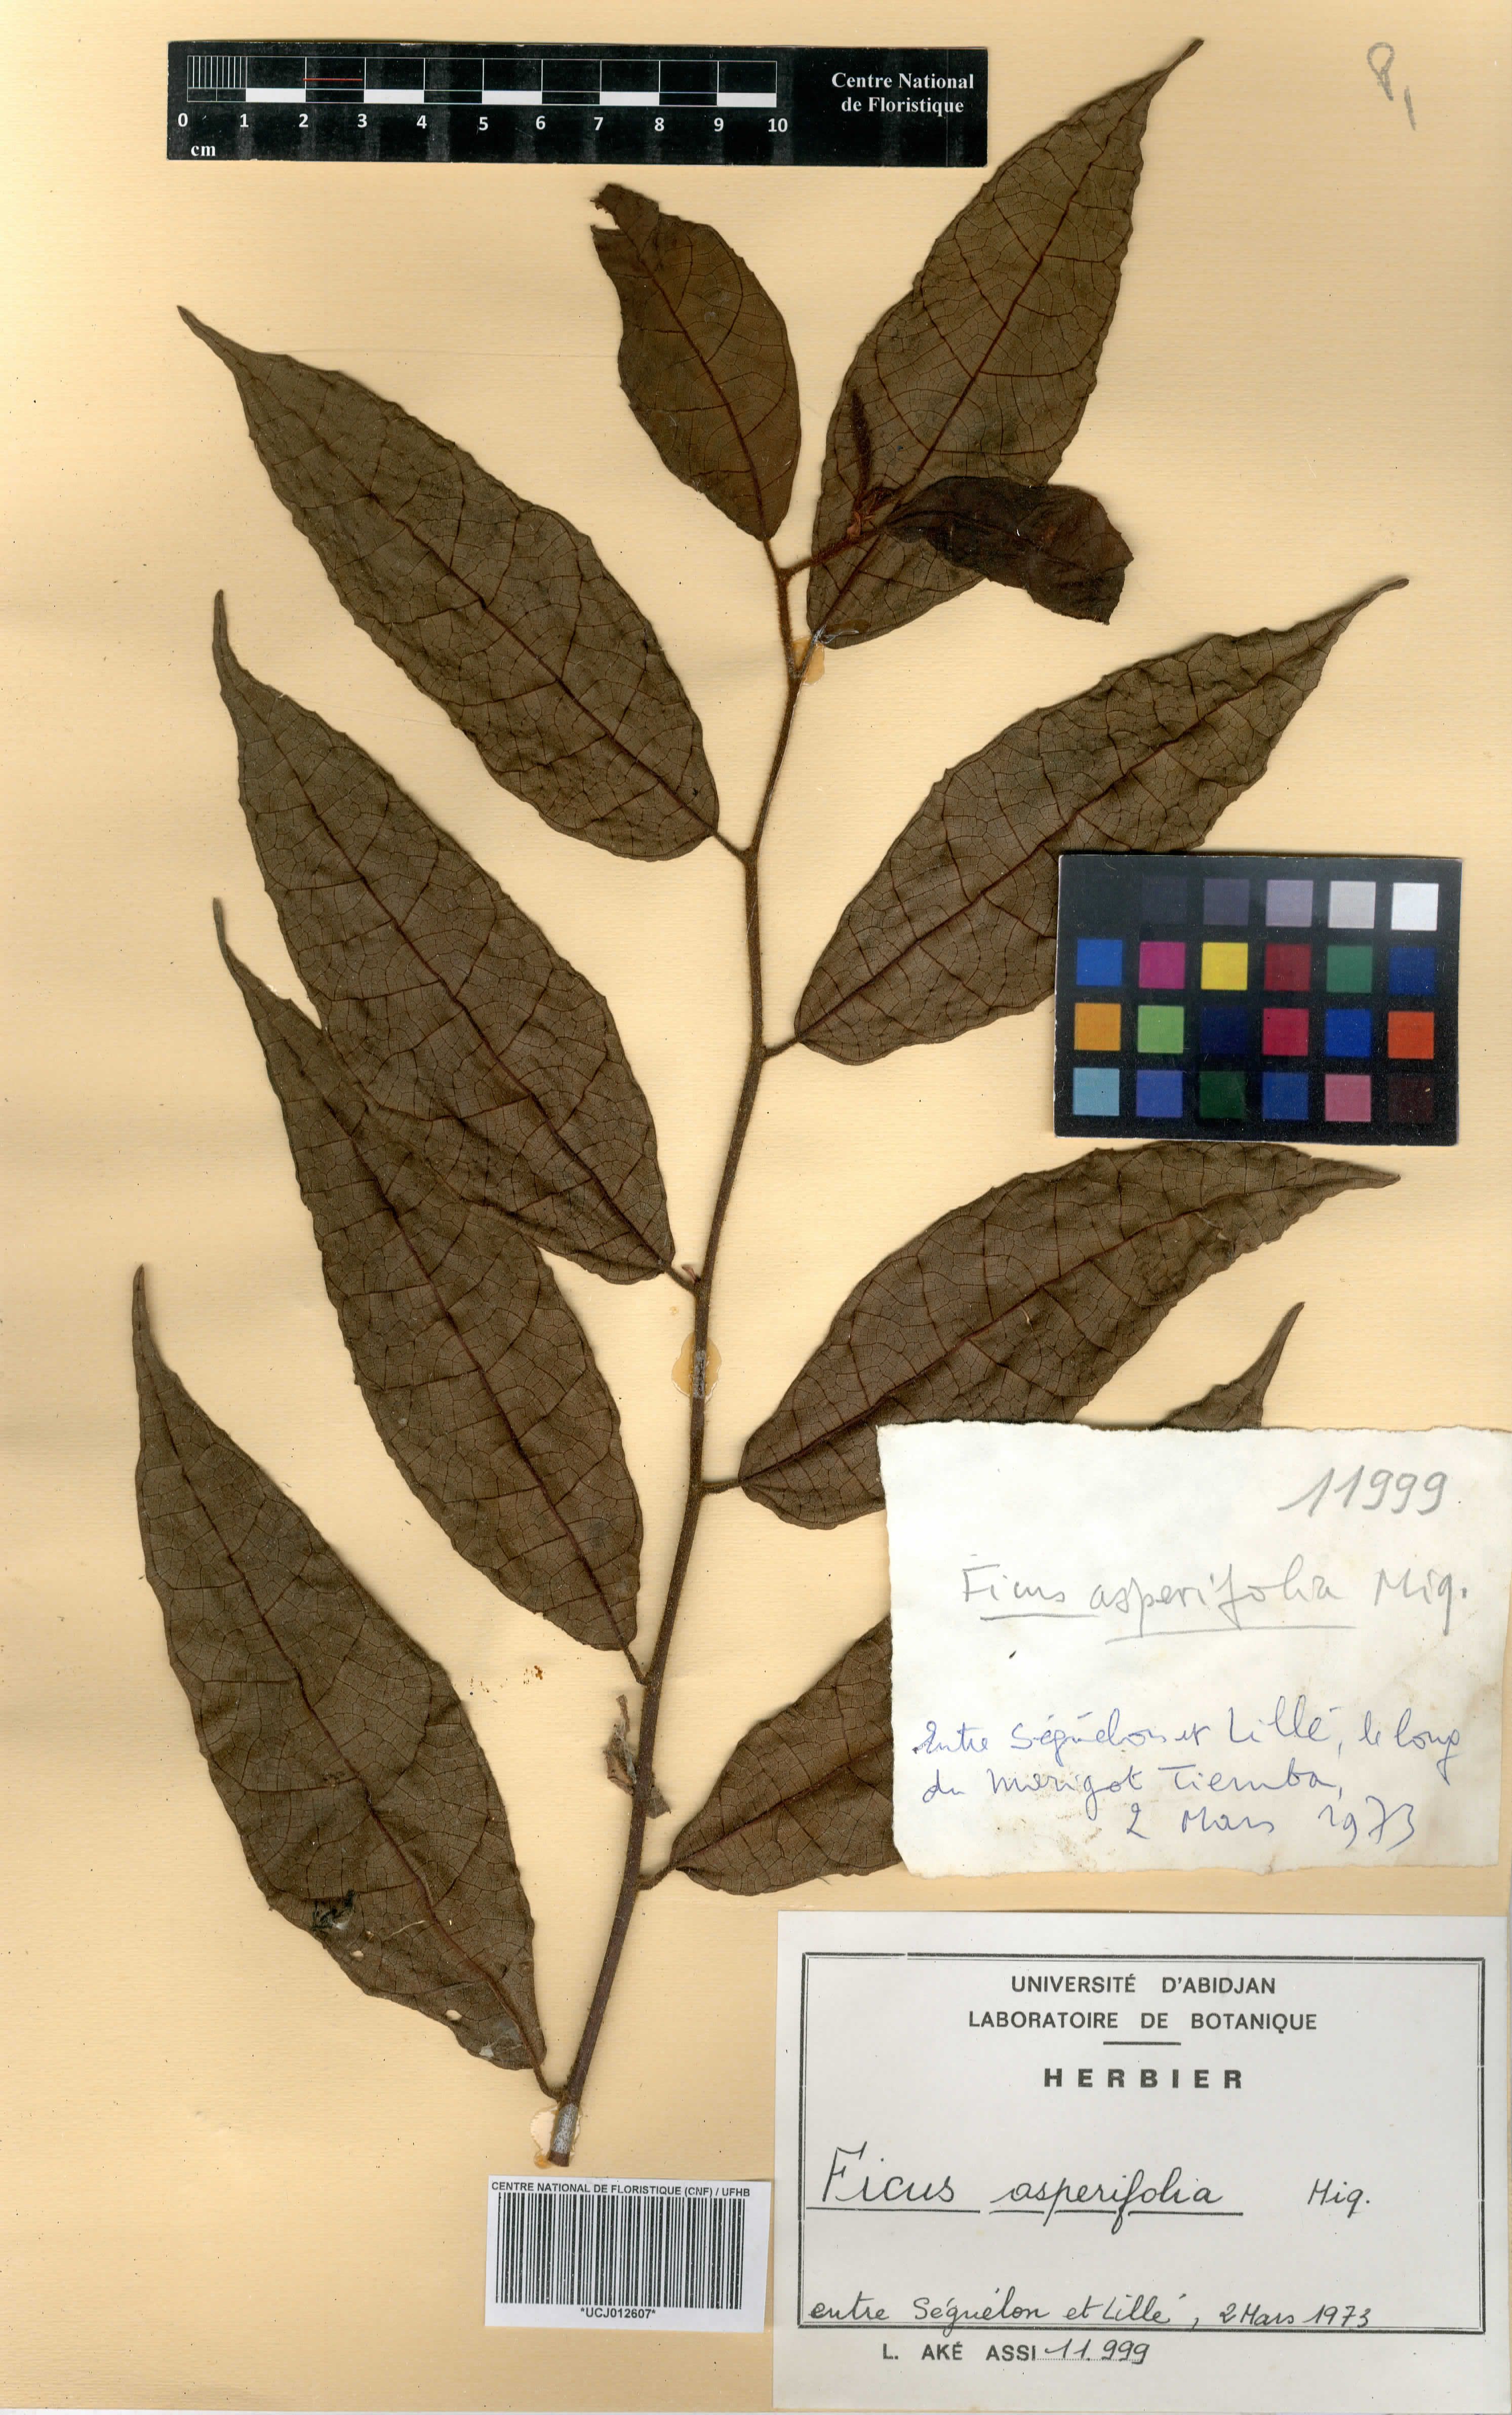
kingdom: Plantae
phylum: Tracheophyta
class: Magnoliopsida
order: Rosales
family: Moraceae
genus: Ficus
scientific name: Ficus asperifolia
